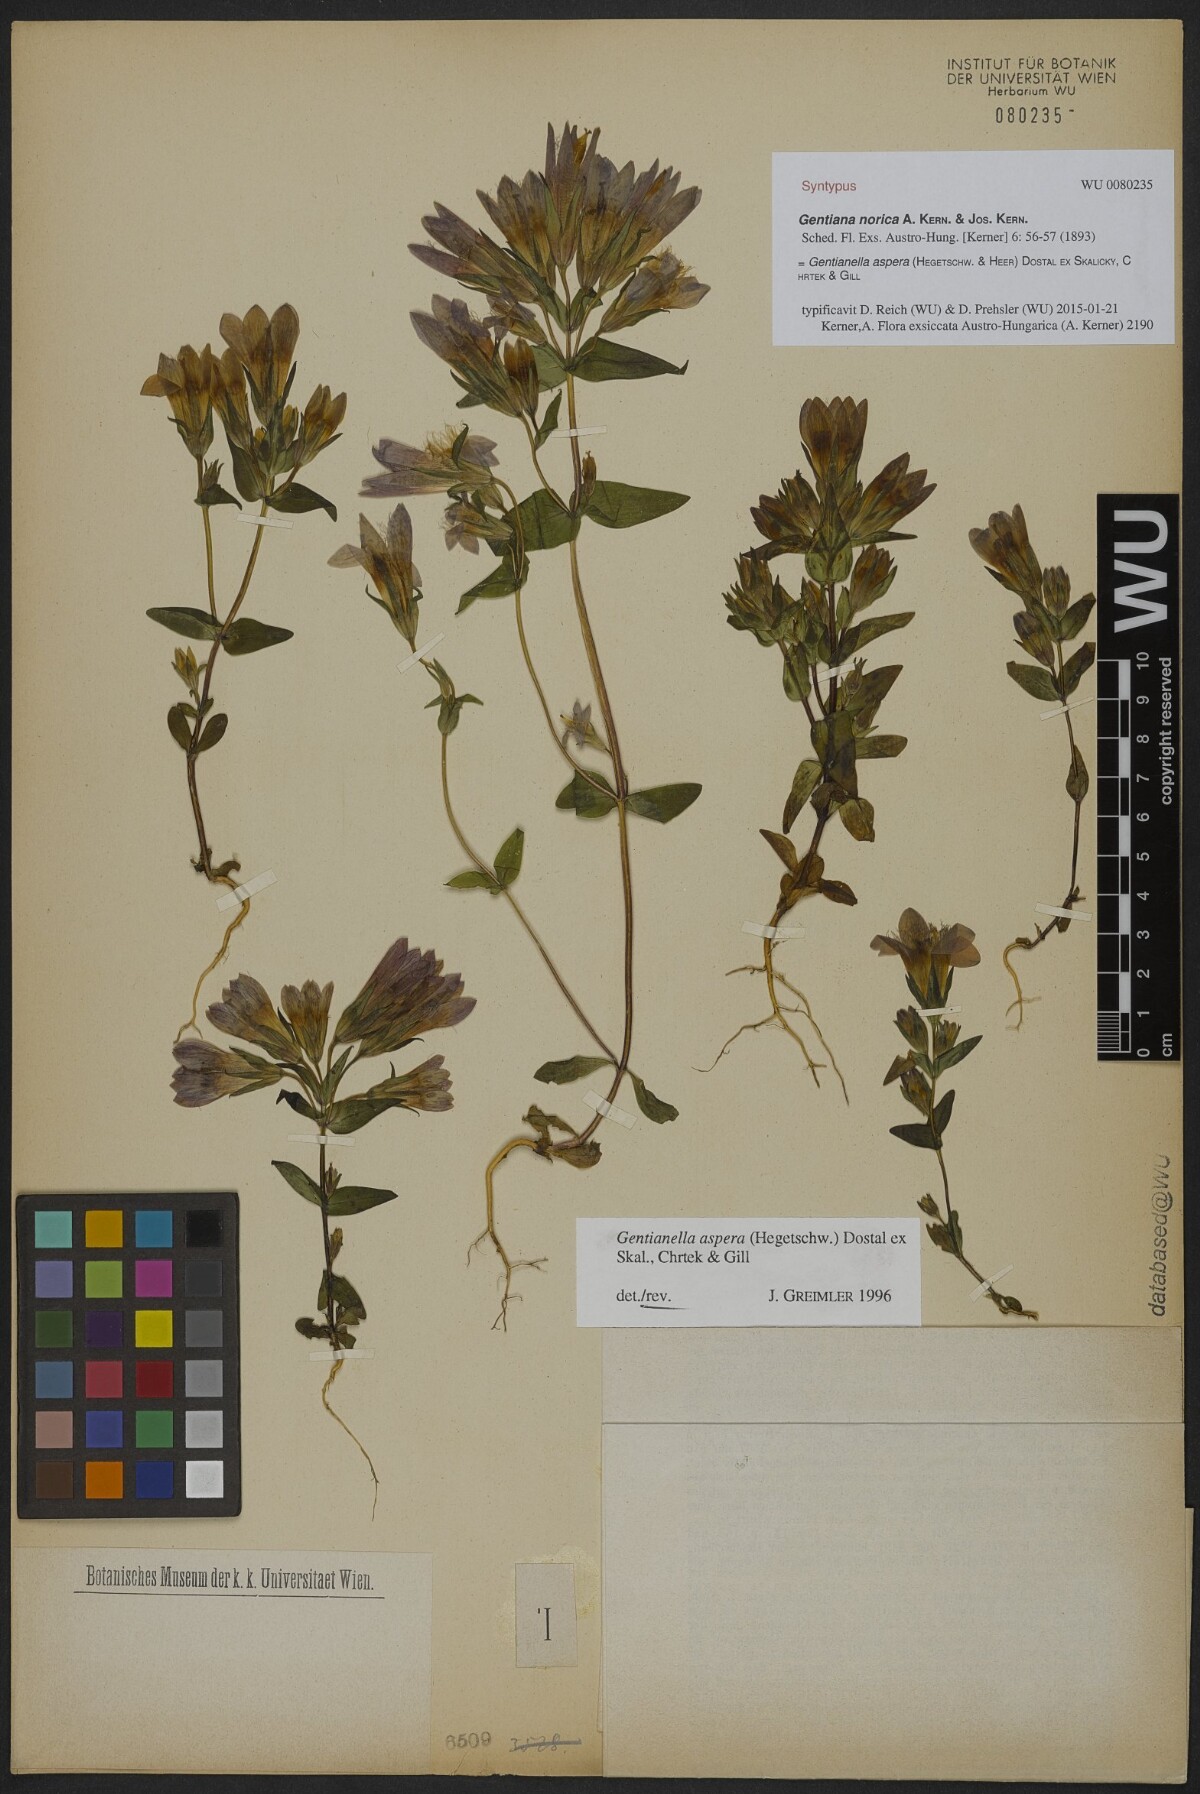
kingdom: Plantae
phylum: Tracheophyta
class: Magnoliopsida
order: Gentianales
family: Gentianaceae
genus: Gentianella
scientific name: Gentianella obtusifolia
